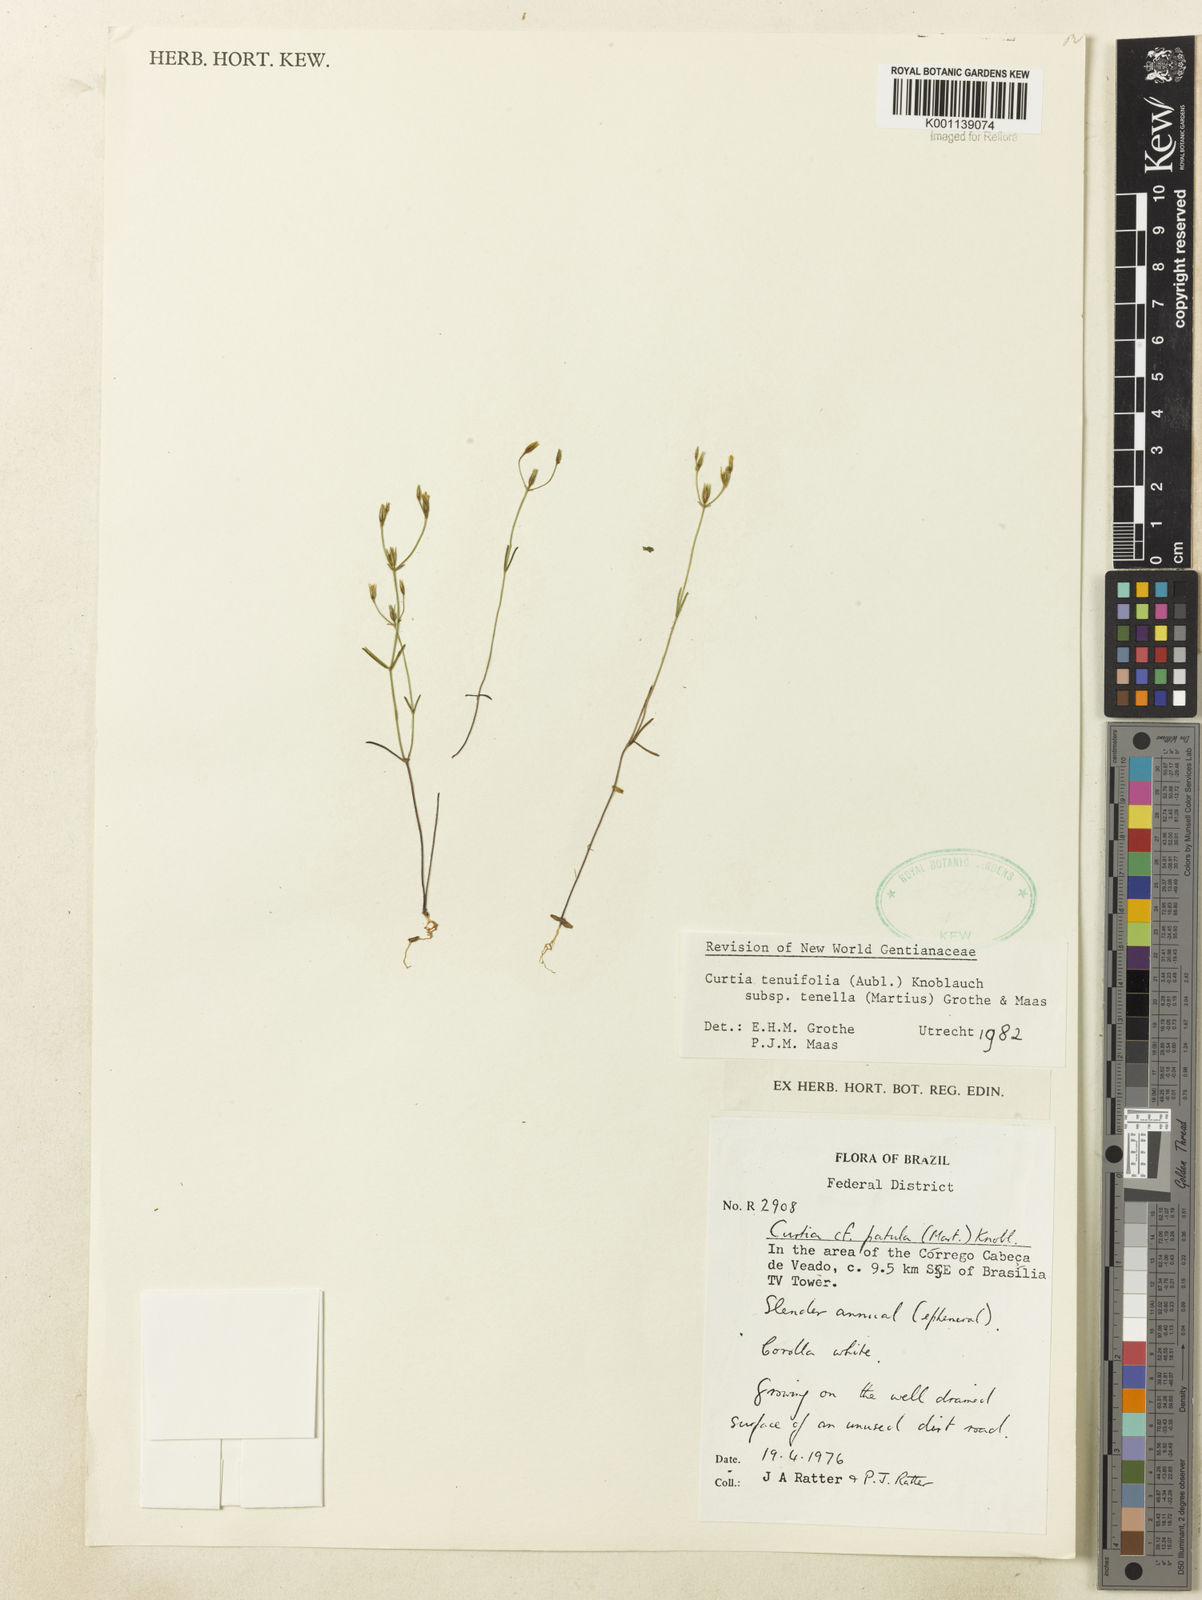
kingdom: Plantae
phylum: Tracheophyta
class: Magnoliopsida
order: Gentianales
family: Gentianaceae
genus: Curtia
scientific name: Curtia tenella
